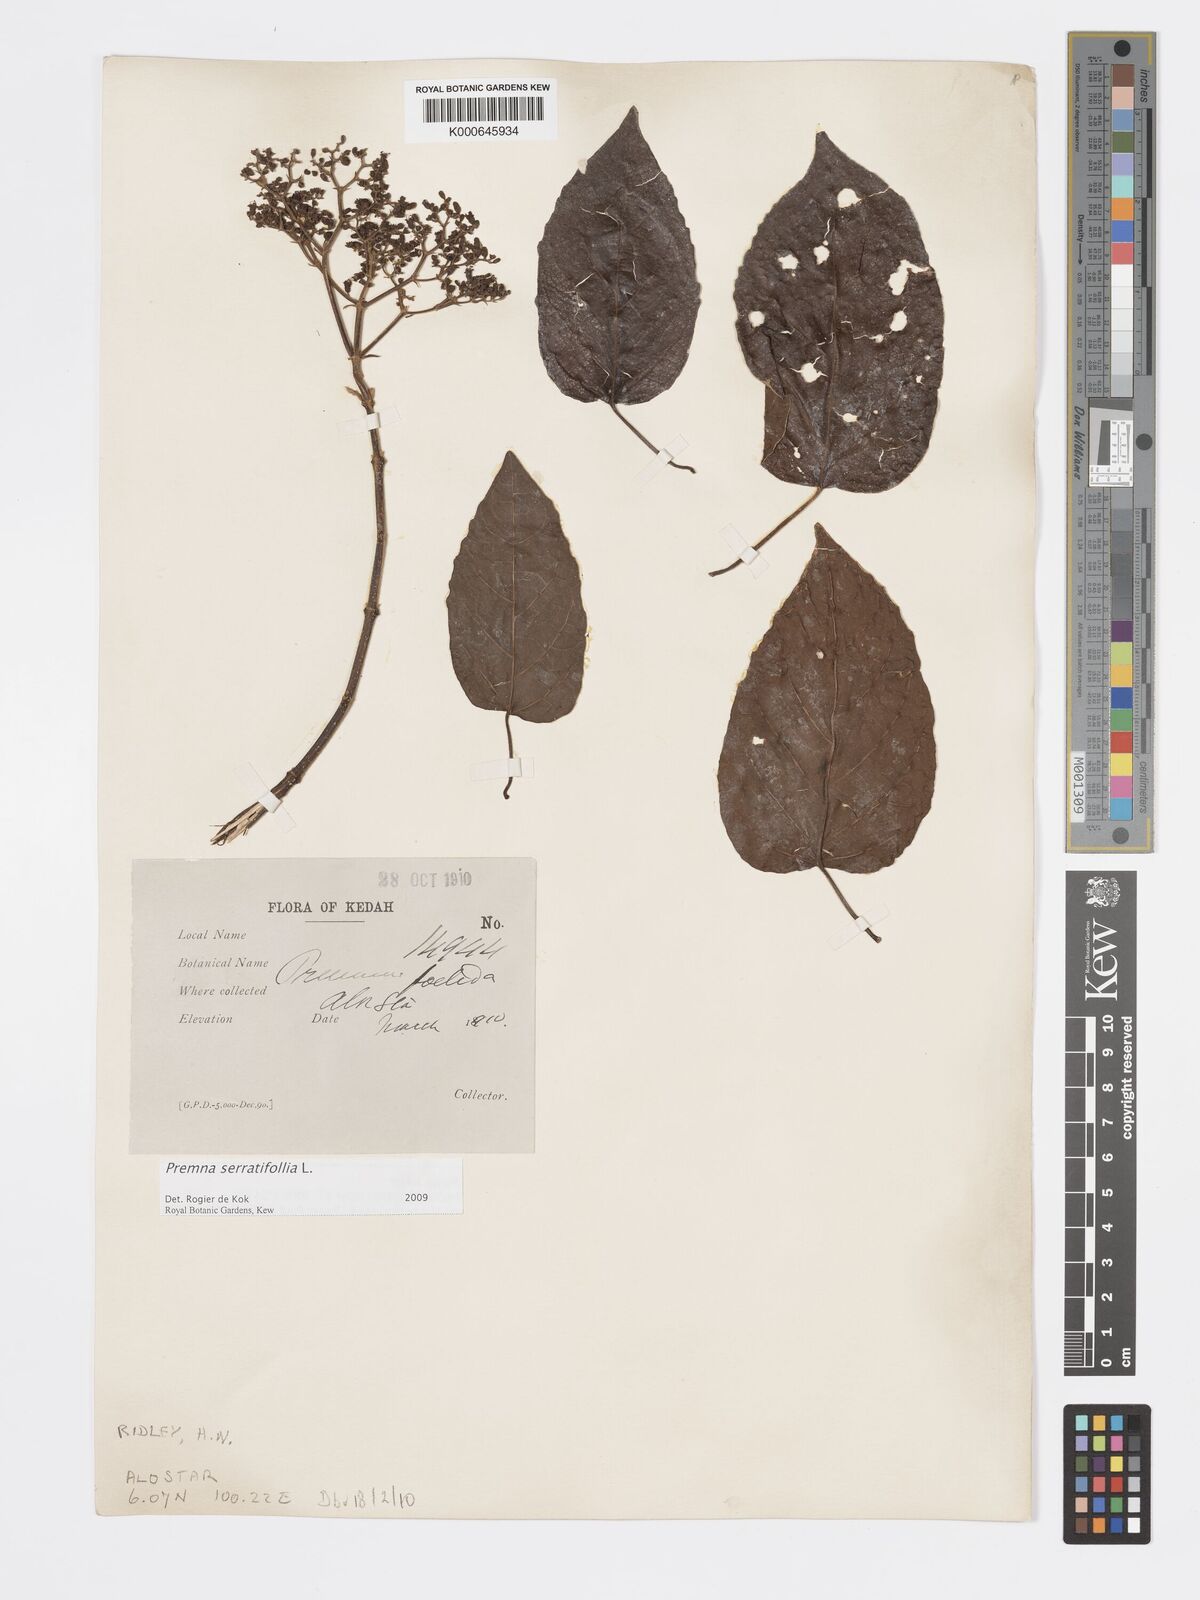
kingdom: Plantae
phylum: Tracheophyta
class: Magnoliopsida
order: Lamiales
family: Lamiaceae
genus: Premna
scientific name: Premna serratifolia
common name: Bastard guelder
